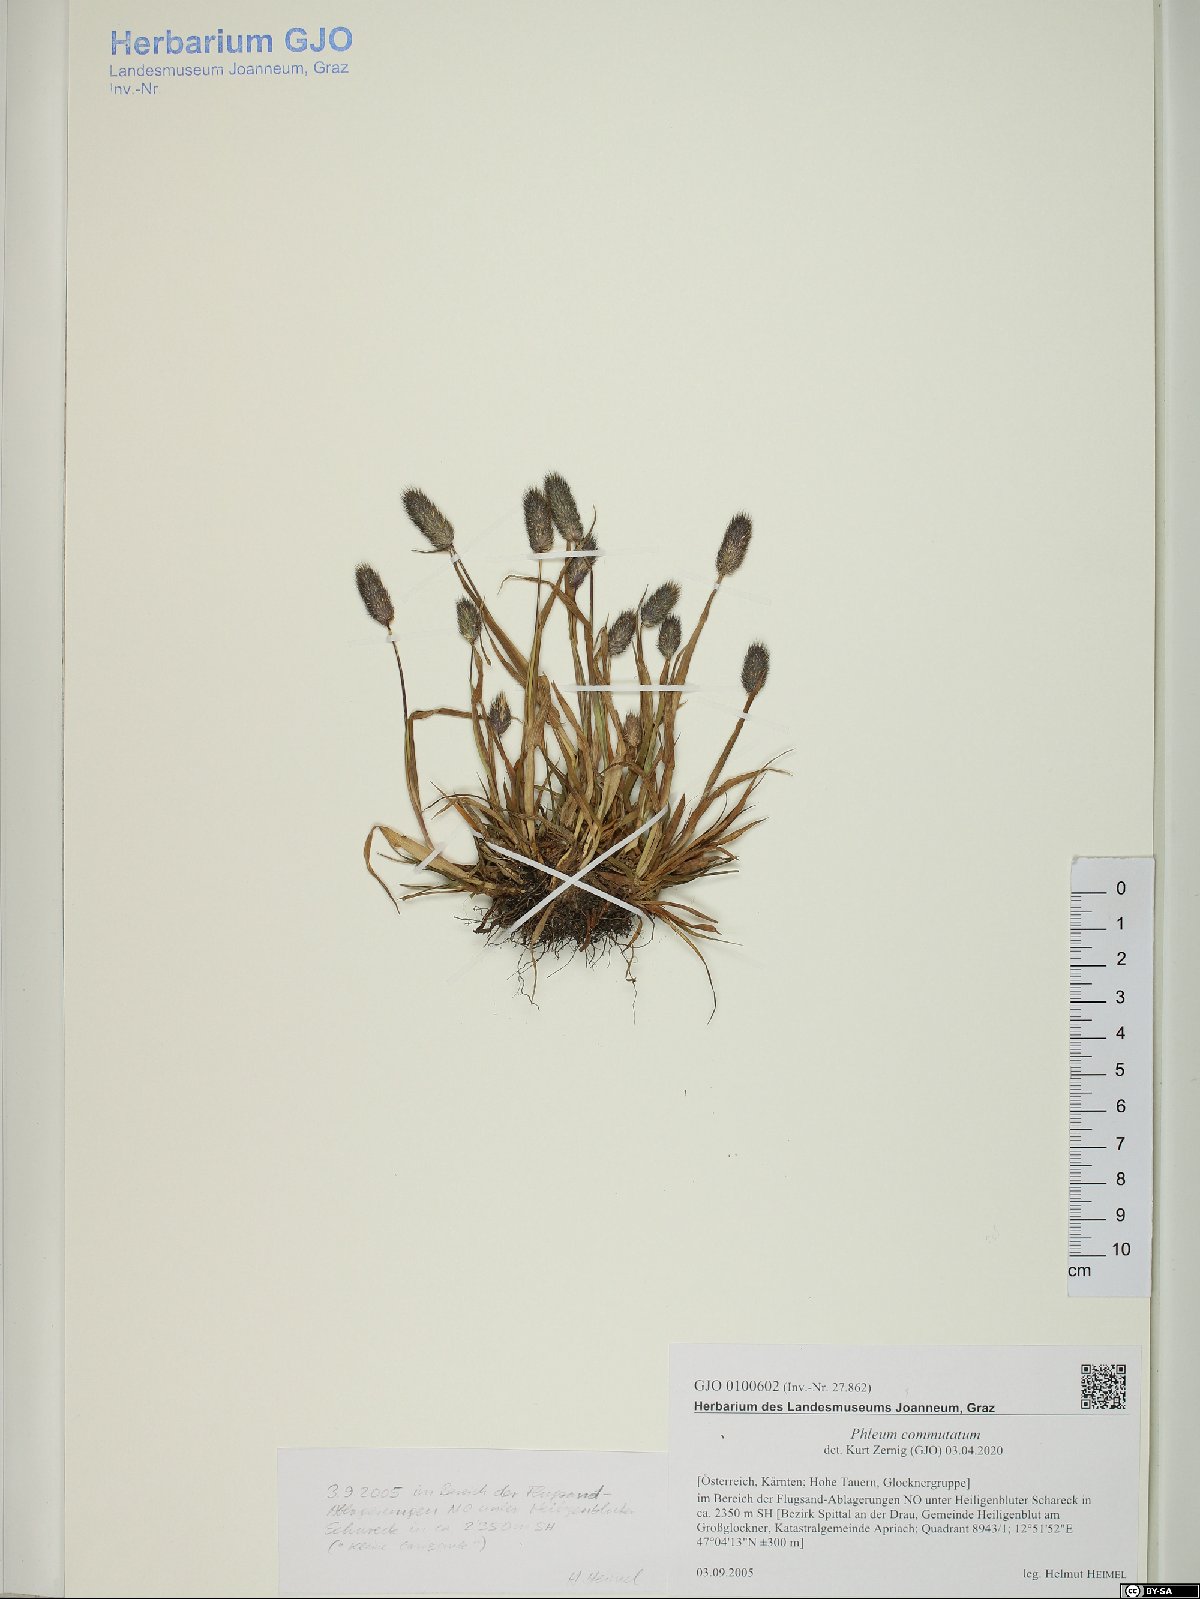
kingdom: Plantae
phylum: Tracheophyta
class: Liliopsida
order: Poales
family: Poaceae
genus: Phleum
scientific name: Phleum alpinum
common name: Alpine cat's-tail
